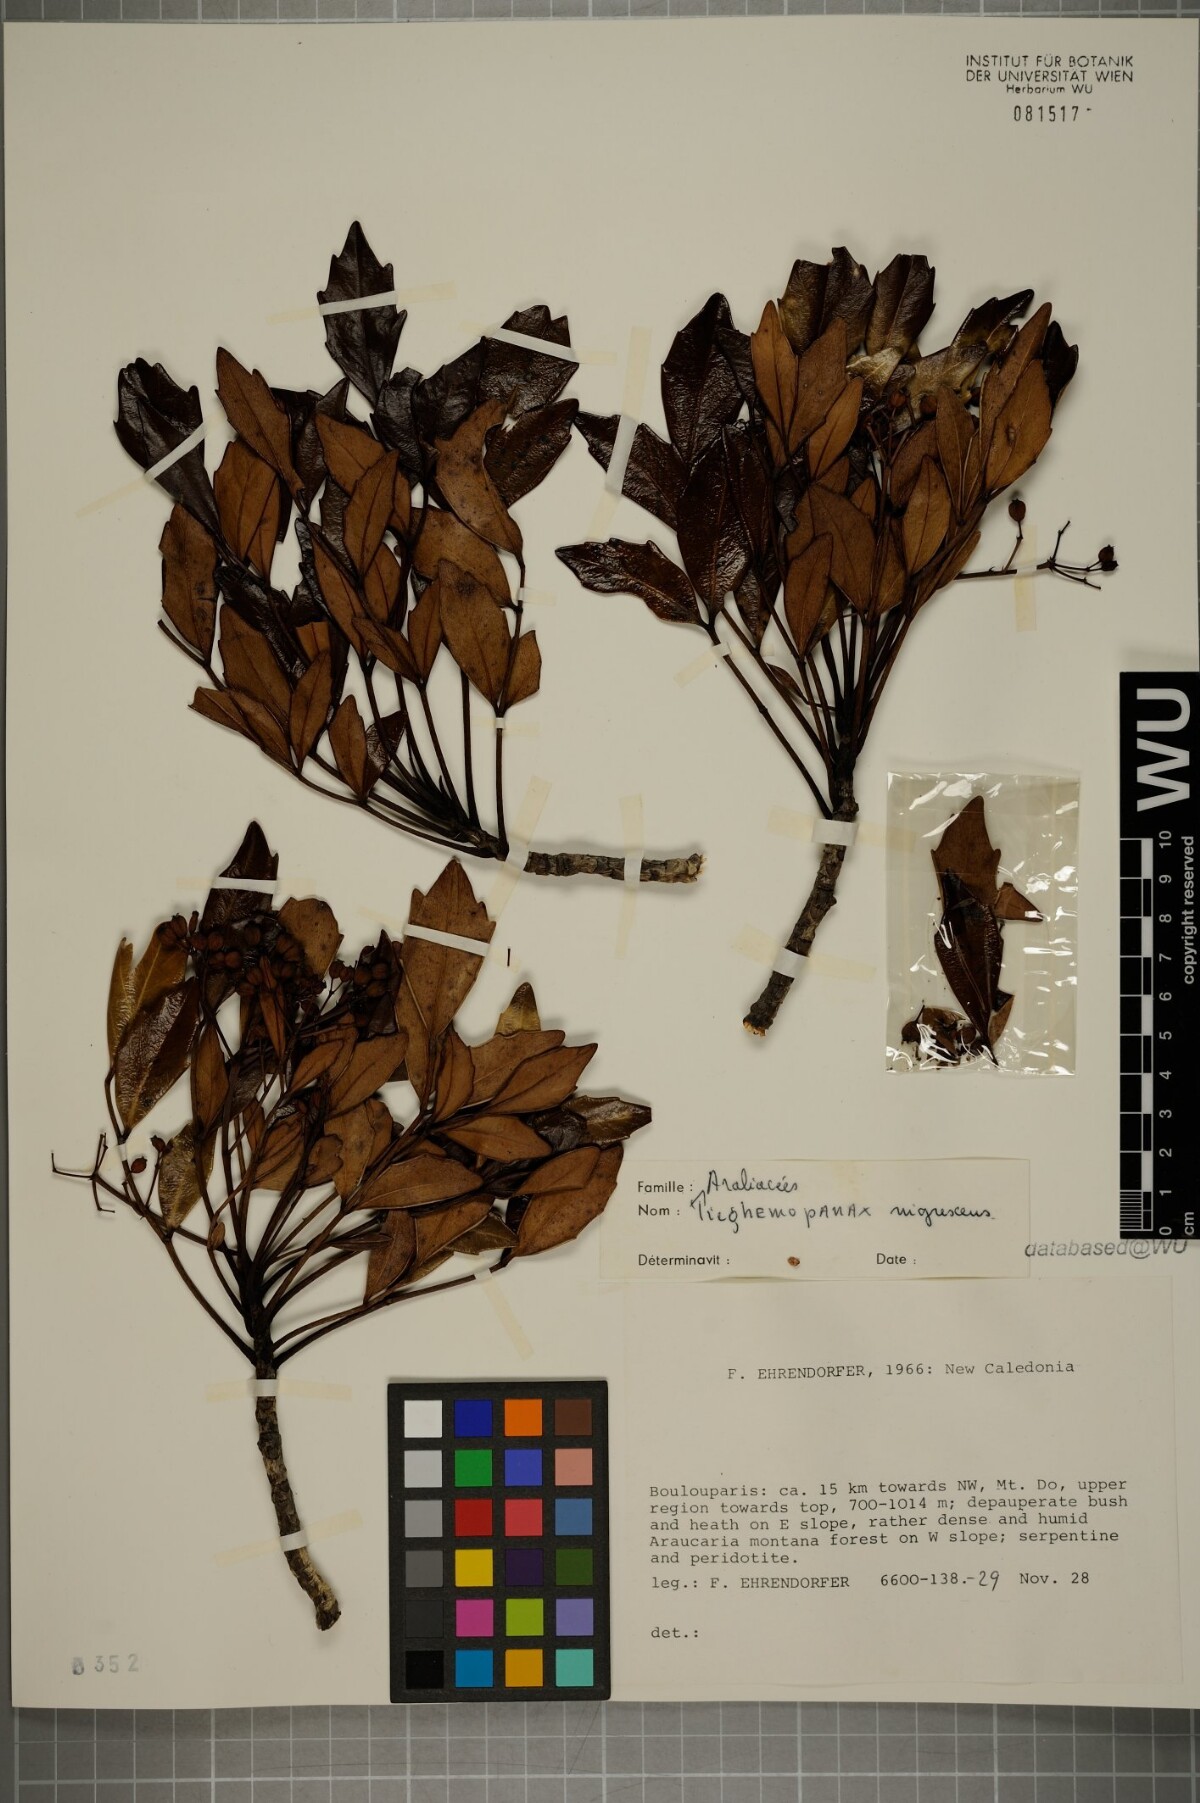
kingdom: Plantae
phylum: Tracheophyta
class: Magnoliopsida
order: Apiales
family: Araliaceae
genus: Polyscias
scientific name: Polyscias dioica
